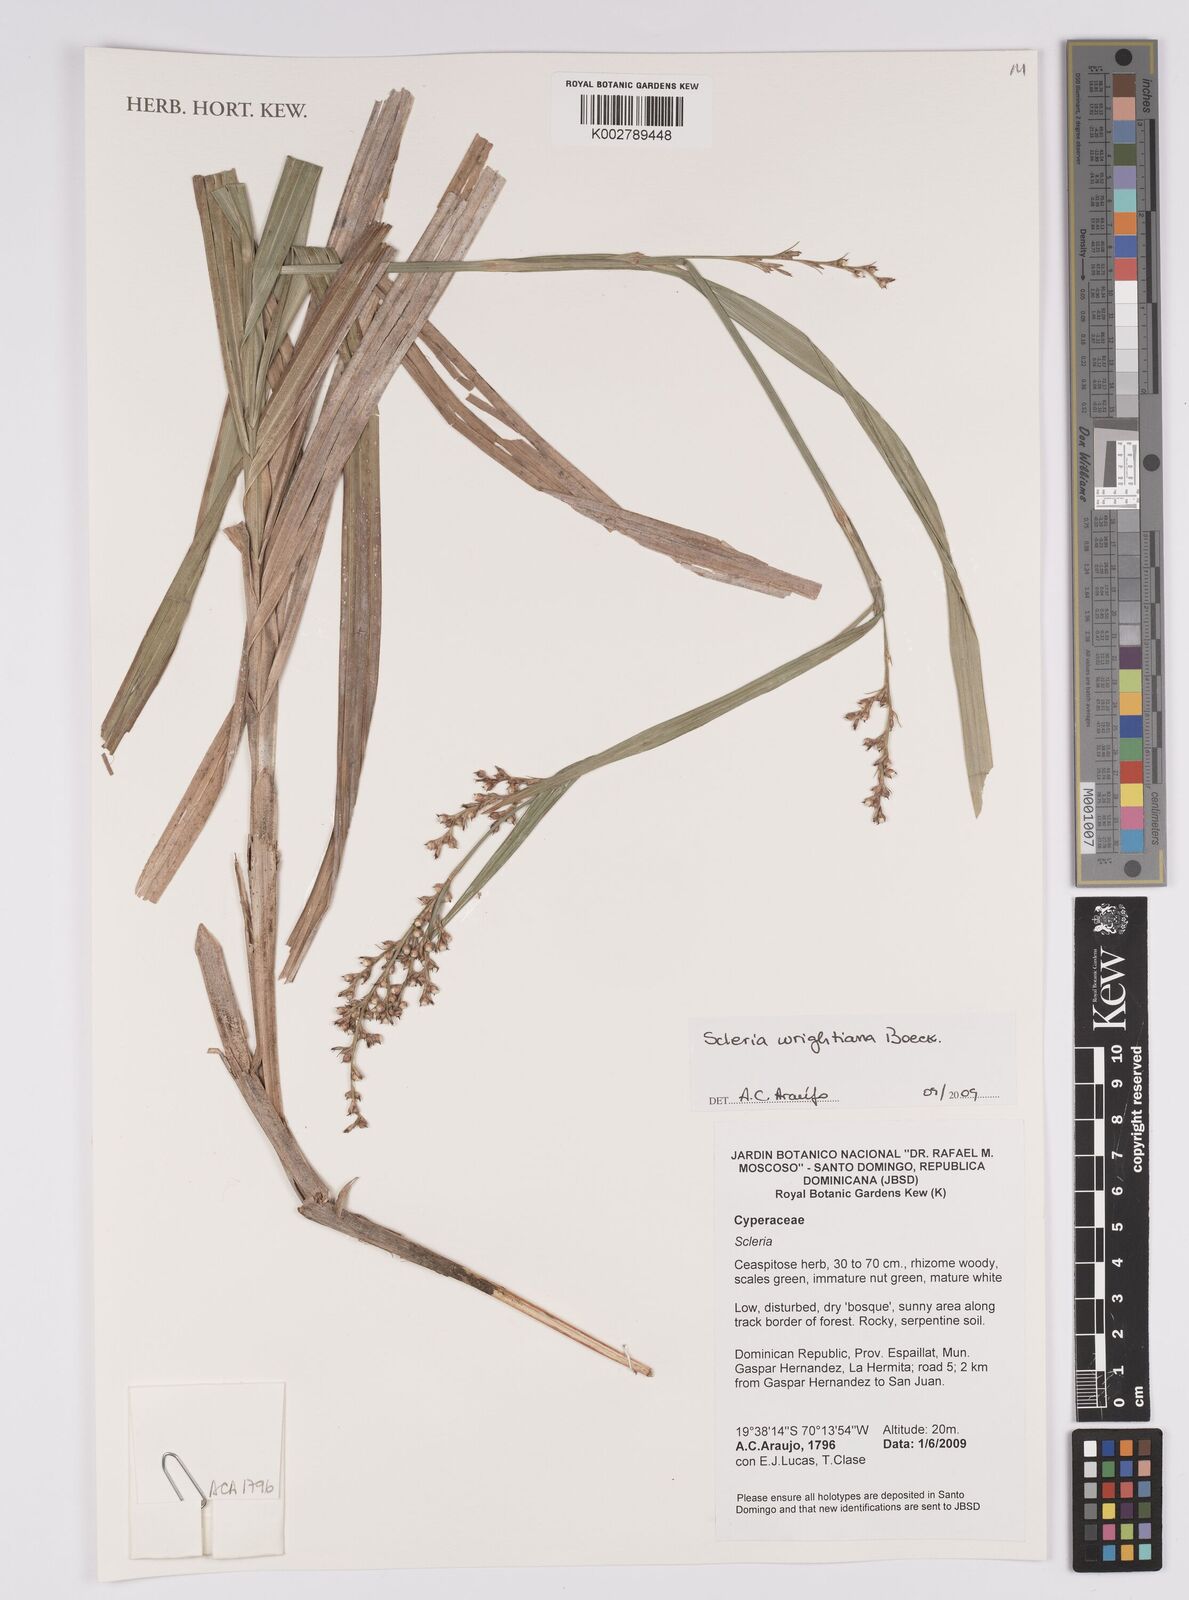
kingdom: Plantae
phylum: Tracheophyta
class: Liliopsida
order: Poales
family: Cyperaceae
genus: Scleria
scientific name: Scleria wrightiana
